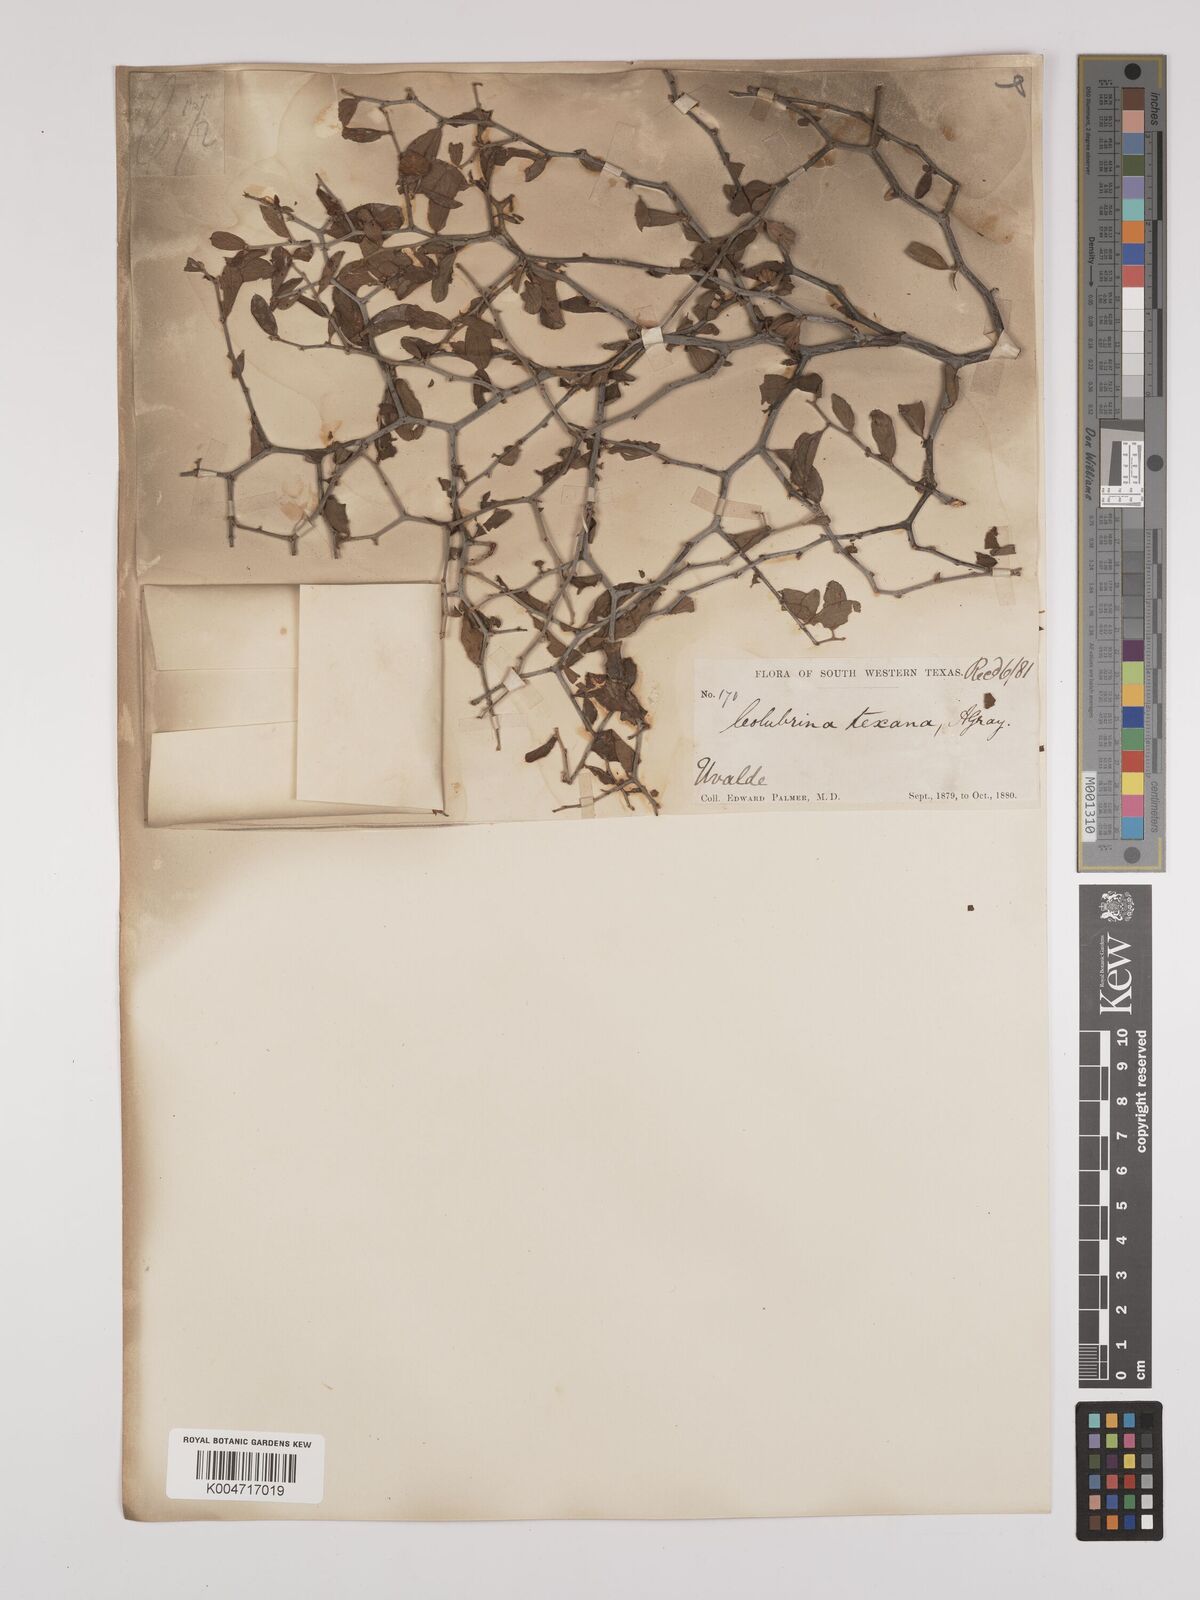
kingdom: Plantae
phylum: Tracheophyta
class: Magnoliopsida
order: Rosales
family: Rhamnaceae
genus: Colubrina
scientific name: Colubrina texensis
